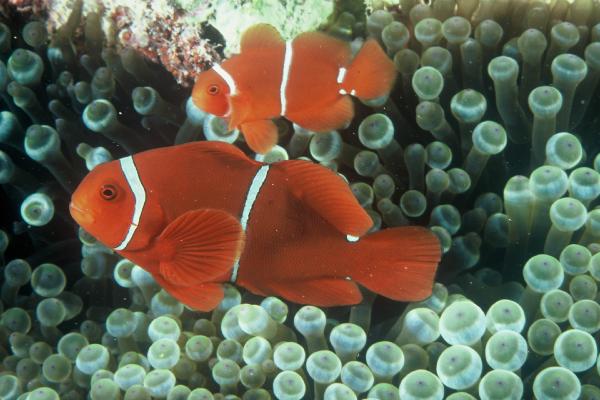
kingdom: Animalia
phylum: Chordata
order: Perciformes
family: Pomacentridae
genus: Premnas
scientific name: Premnas biaculeatus
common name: Spinecheek anemonefish
